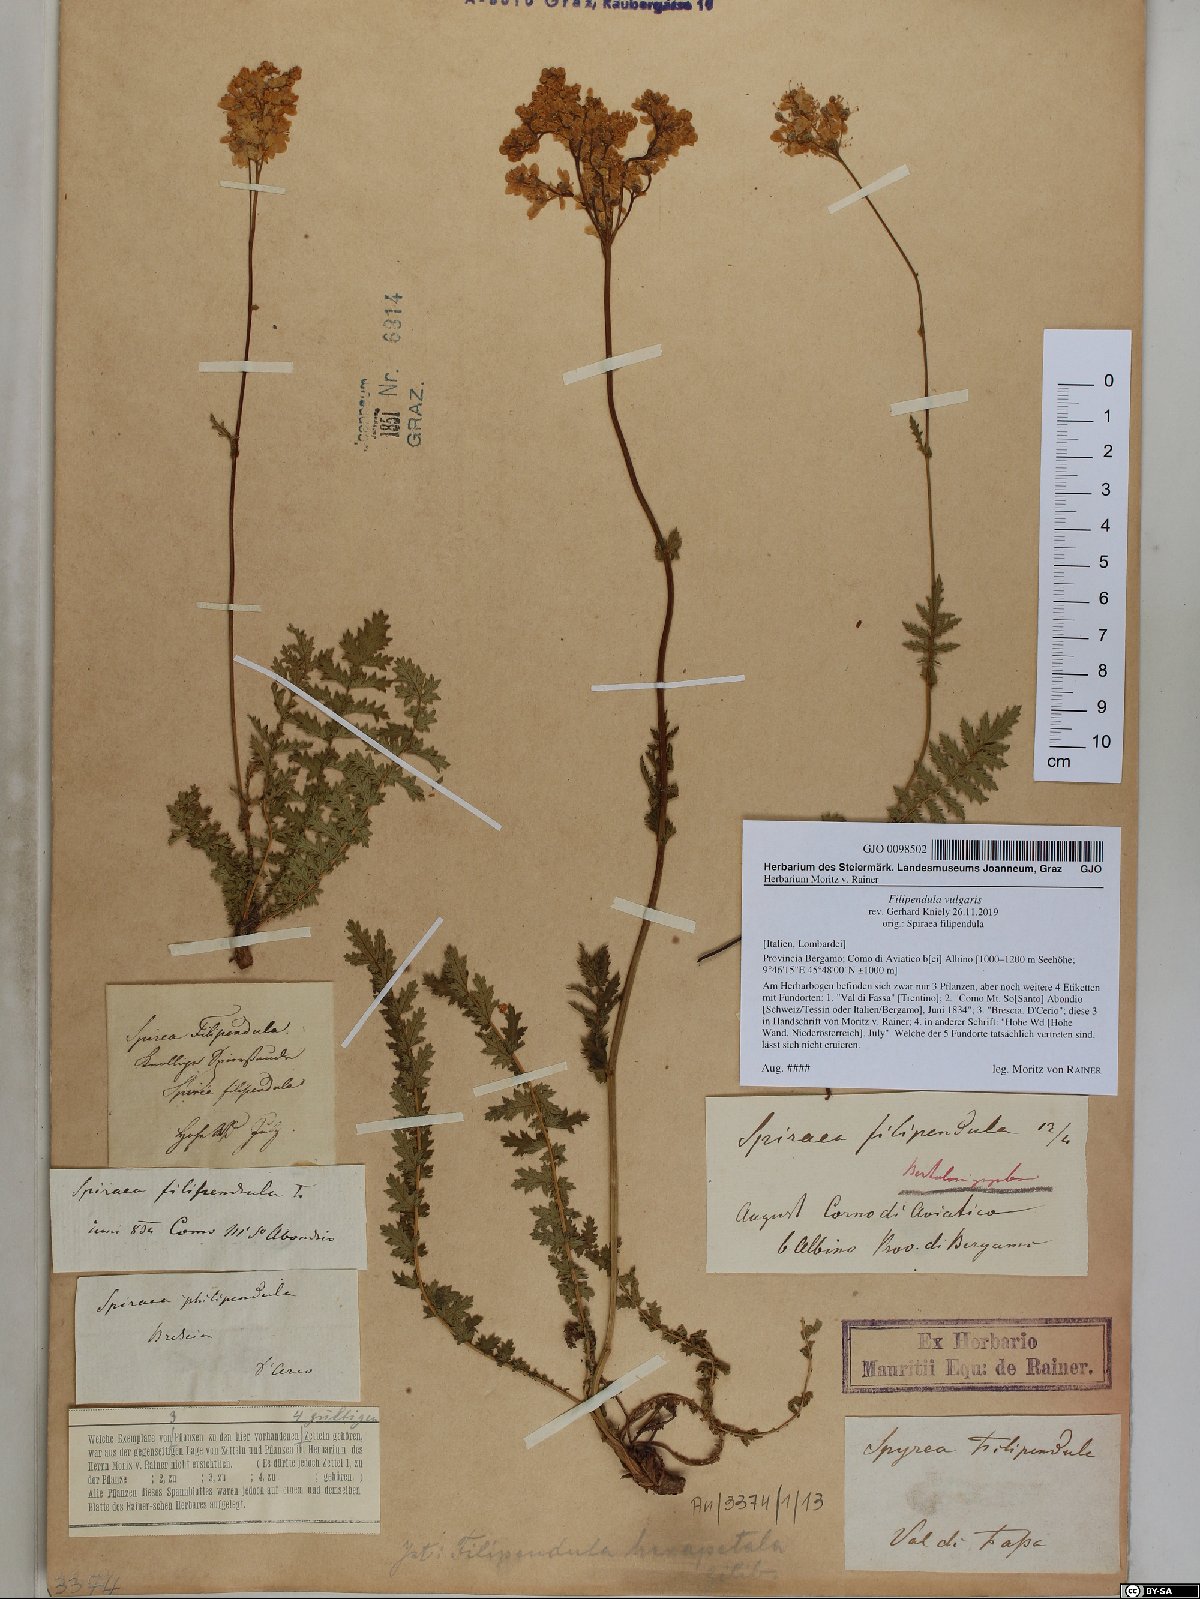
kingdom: Plantae
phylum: Tracheophyta
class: Magnoliopsida
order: Rosales
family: Rosaceae
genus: Filipendula
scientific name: Filipendula vulgaris
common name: Dropwort
